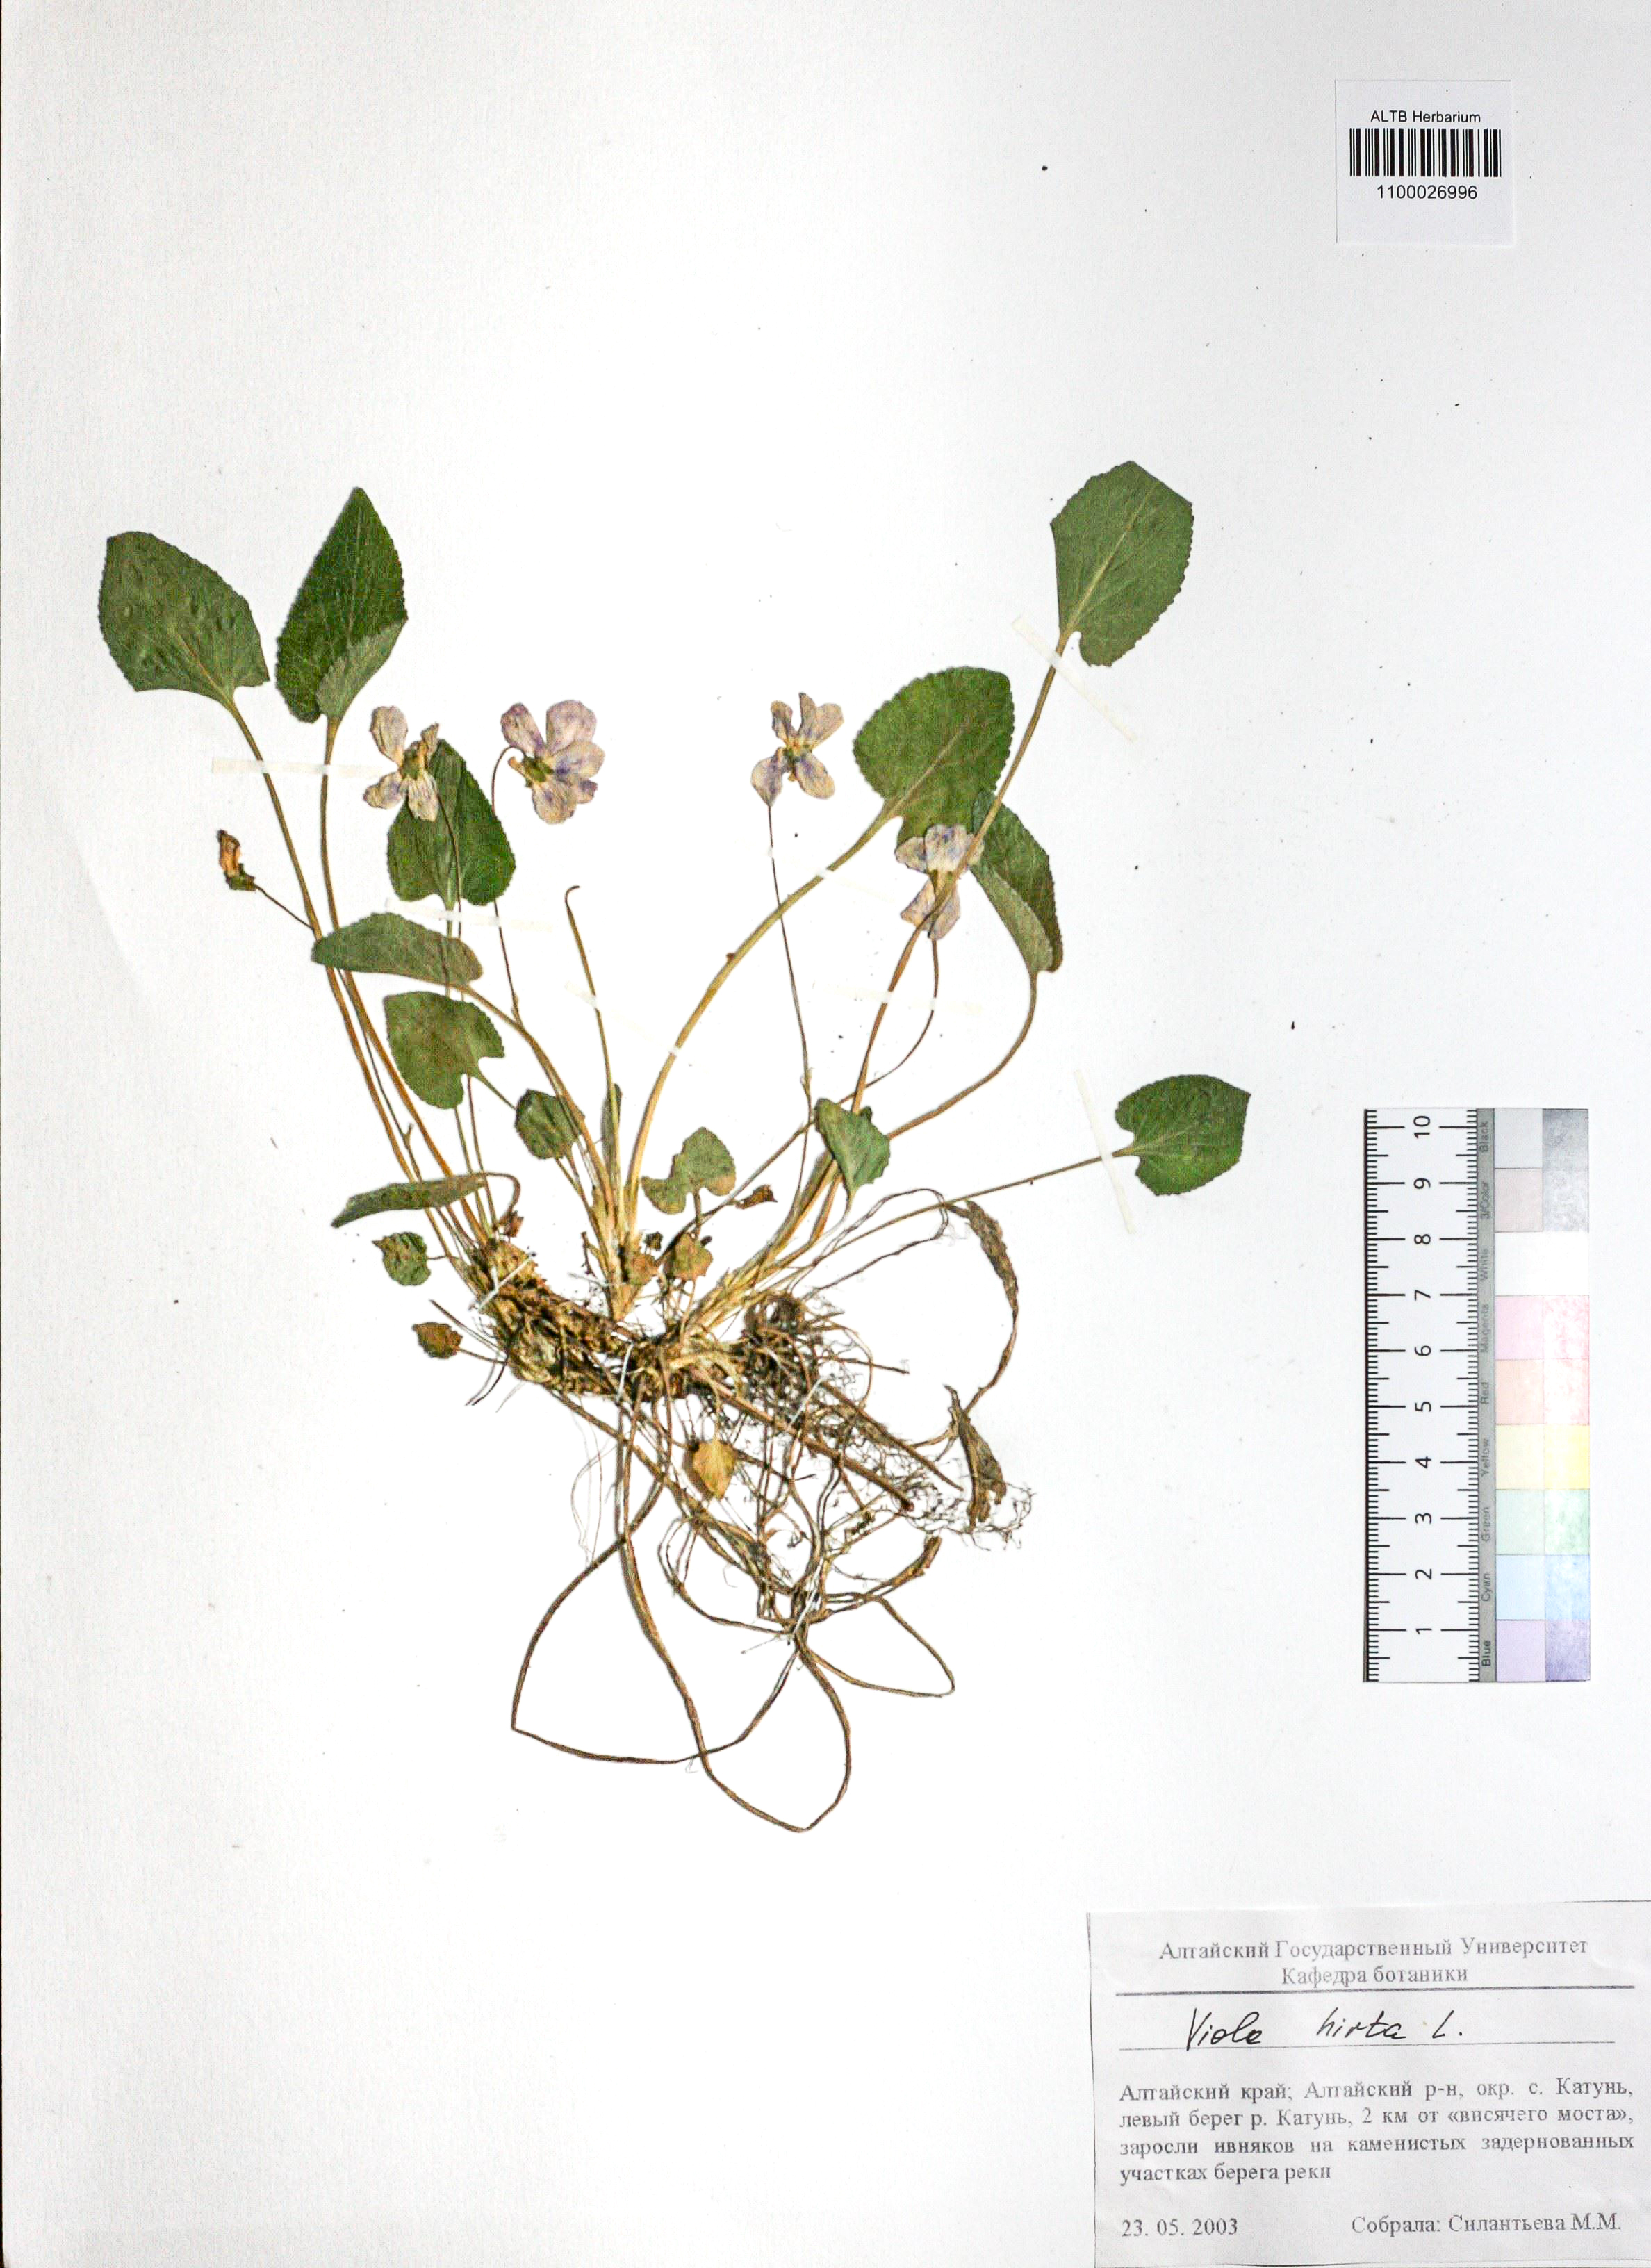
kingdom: Plantae
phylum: Tracheophyta
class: Magnoliopsida
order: Malpighiales
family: Violaceae
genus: Viola
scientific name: Viola hirta
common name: Hairy violet
